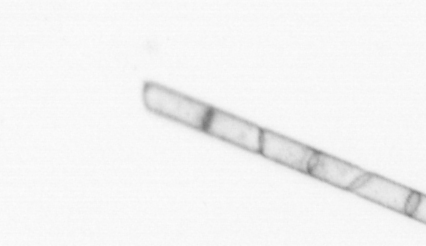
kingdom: Chromista
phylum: Ochrophyta
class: Bacillariophyceae
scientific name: Bacillariophyceae
